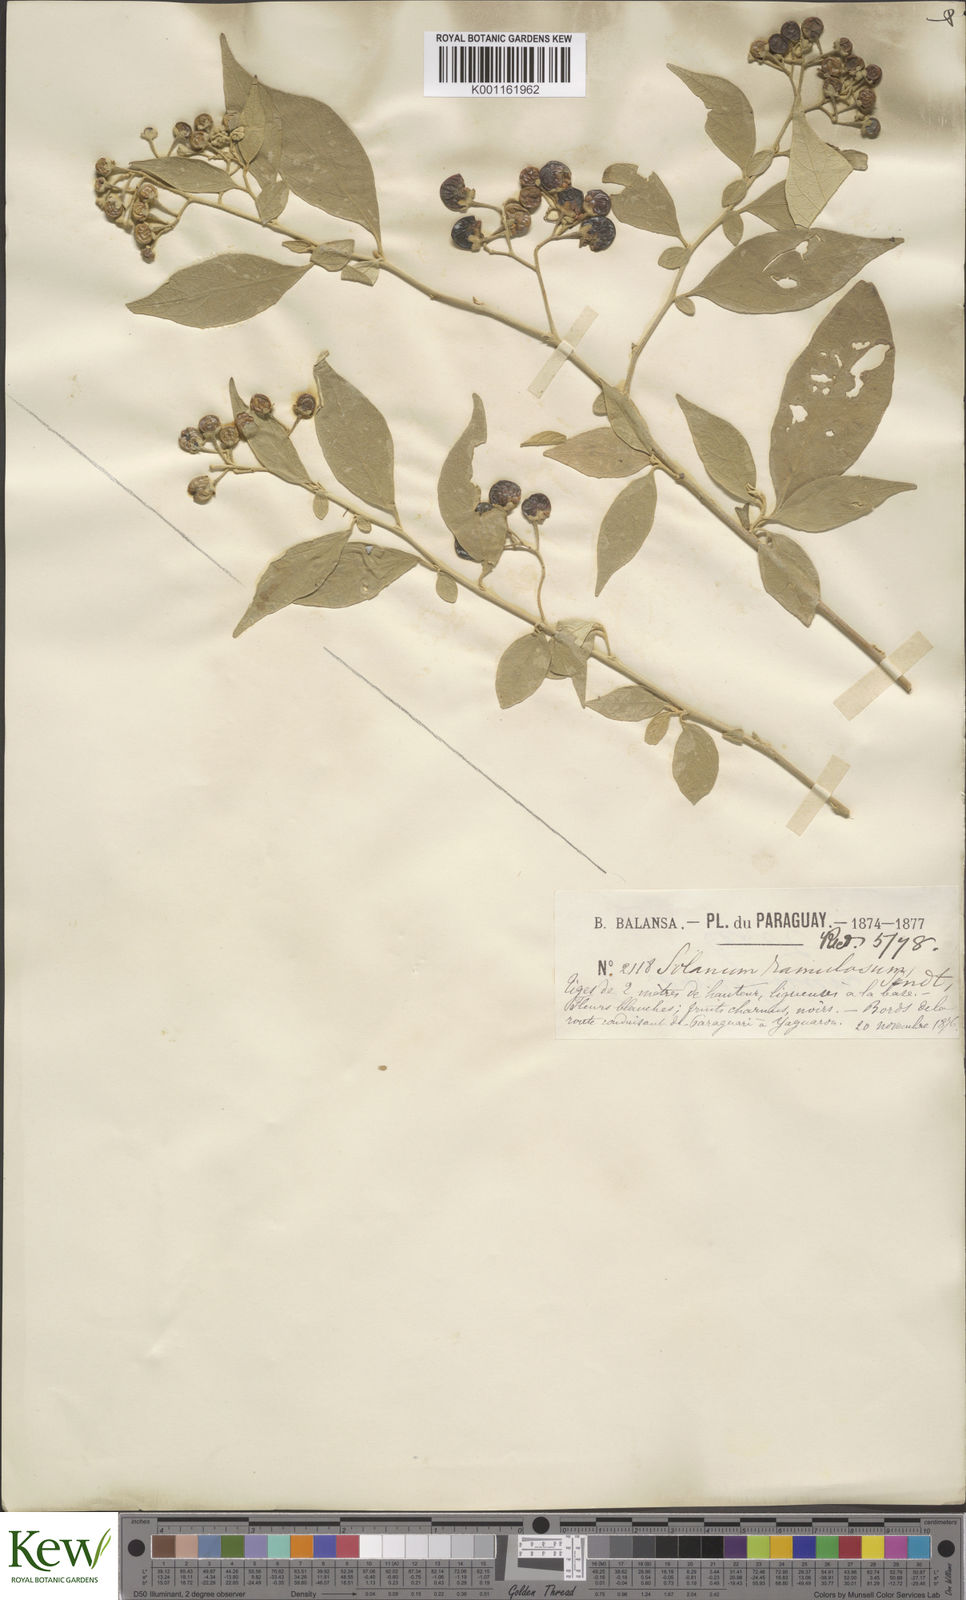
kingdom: Plantae
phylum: Tracheophyta
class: Magnoliopsida
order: Solanales
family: Solanaceae
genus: Solanum
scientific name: Solanum ramulosum
